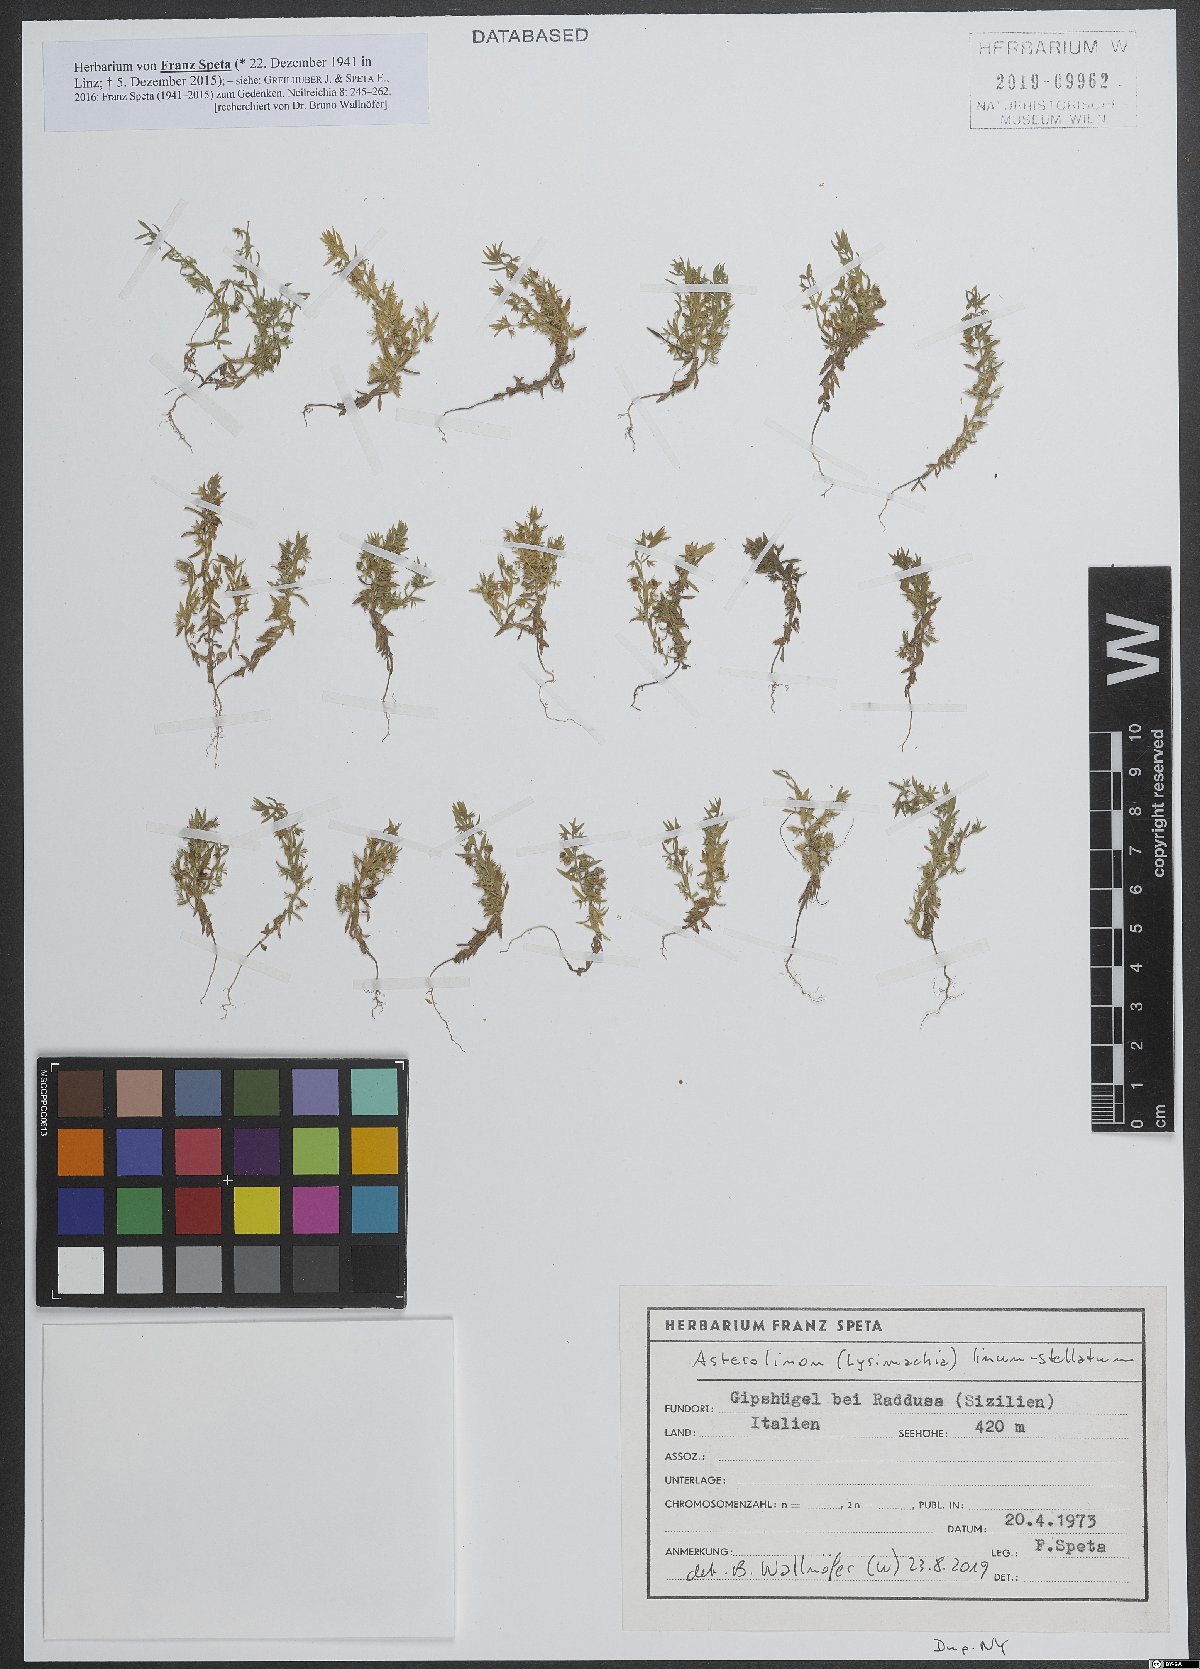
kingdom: Plantae
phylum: Tracheophyta
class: Magnoliopsida
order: Ericales
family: Primulaceae
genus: Lysimachia
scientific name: Lysimachia linum-stellatum
